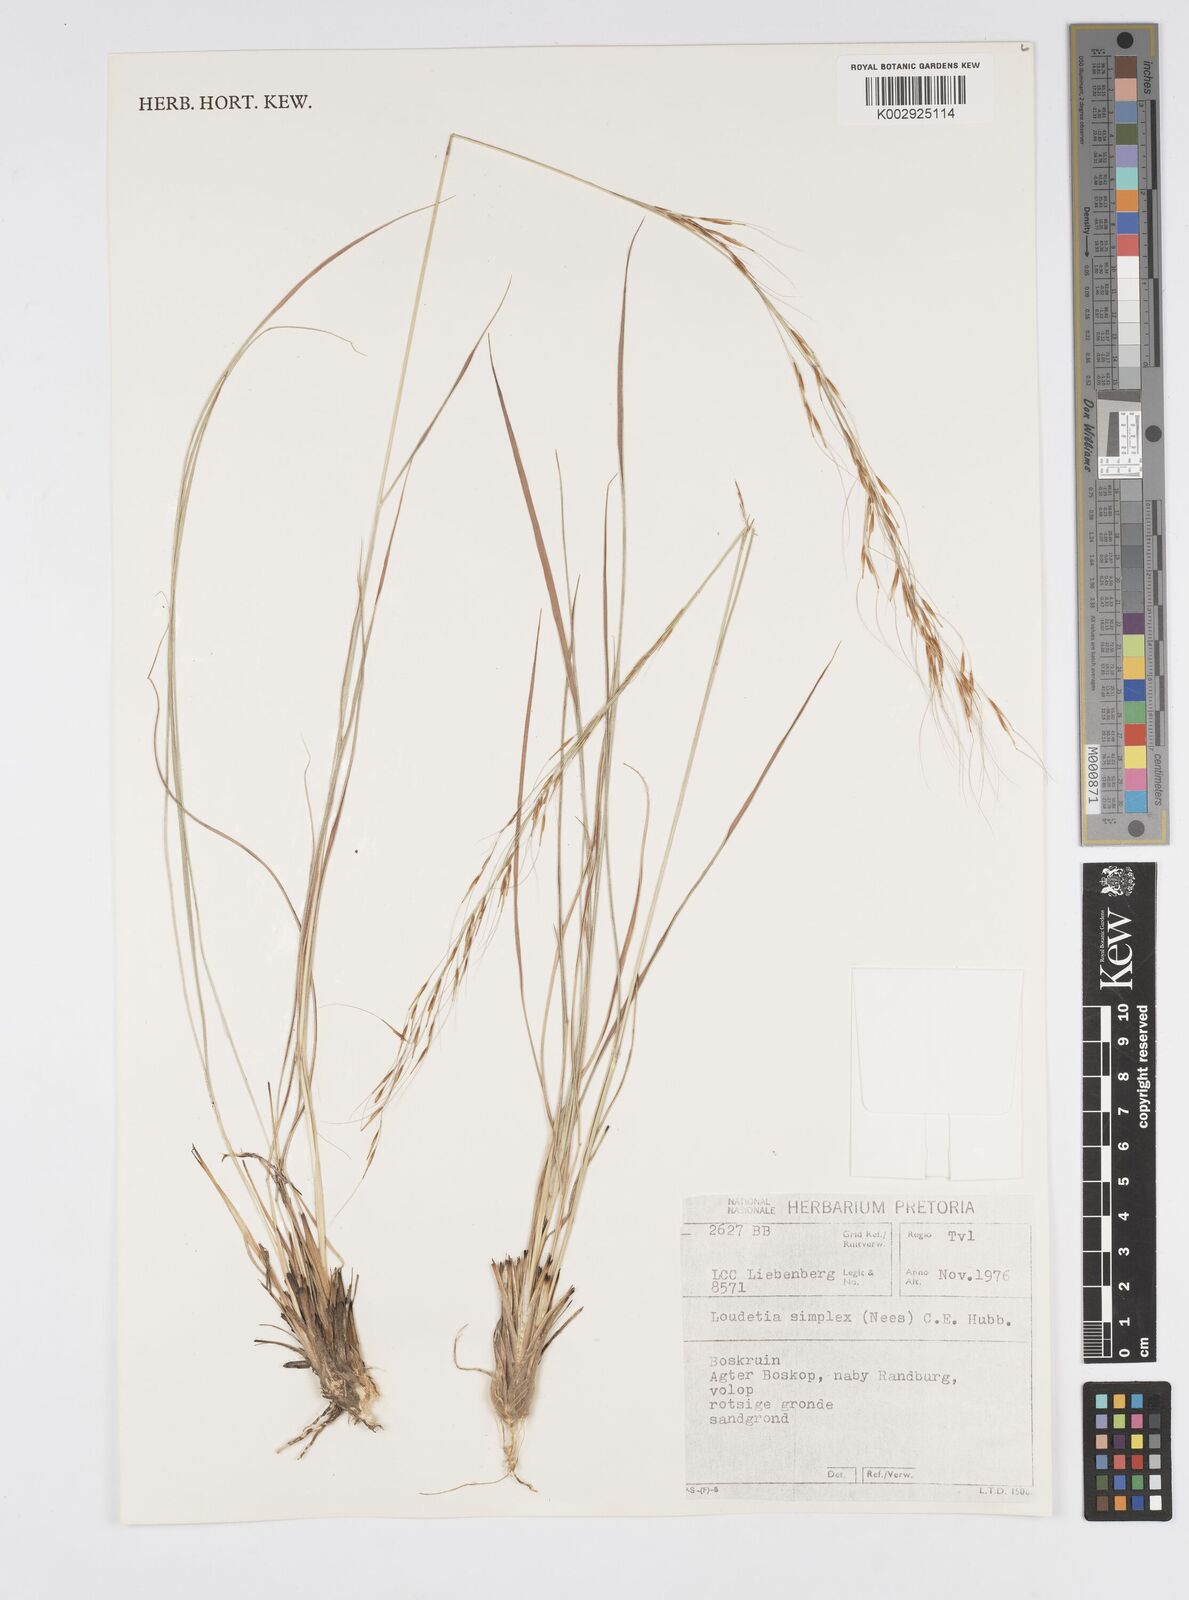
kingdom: Plantae
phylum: Tracheophyta
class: Liliopsida
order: Poales
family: Poaceae
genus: Loudetia
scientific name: Loudetia simplex
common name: Common russet grass
